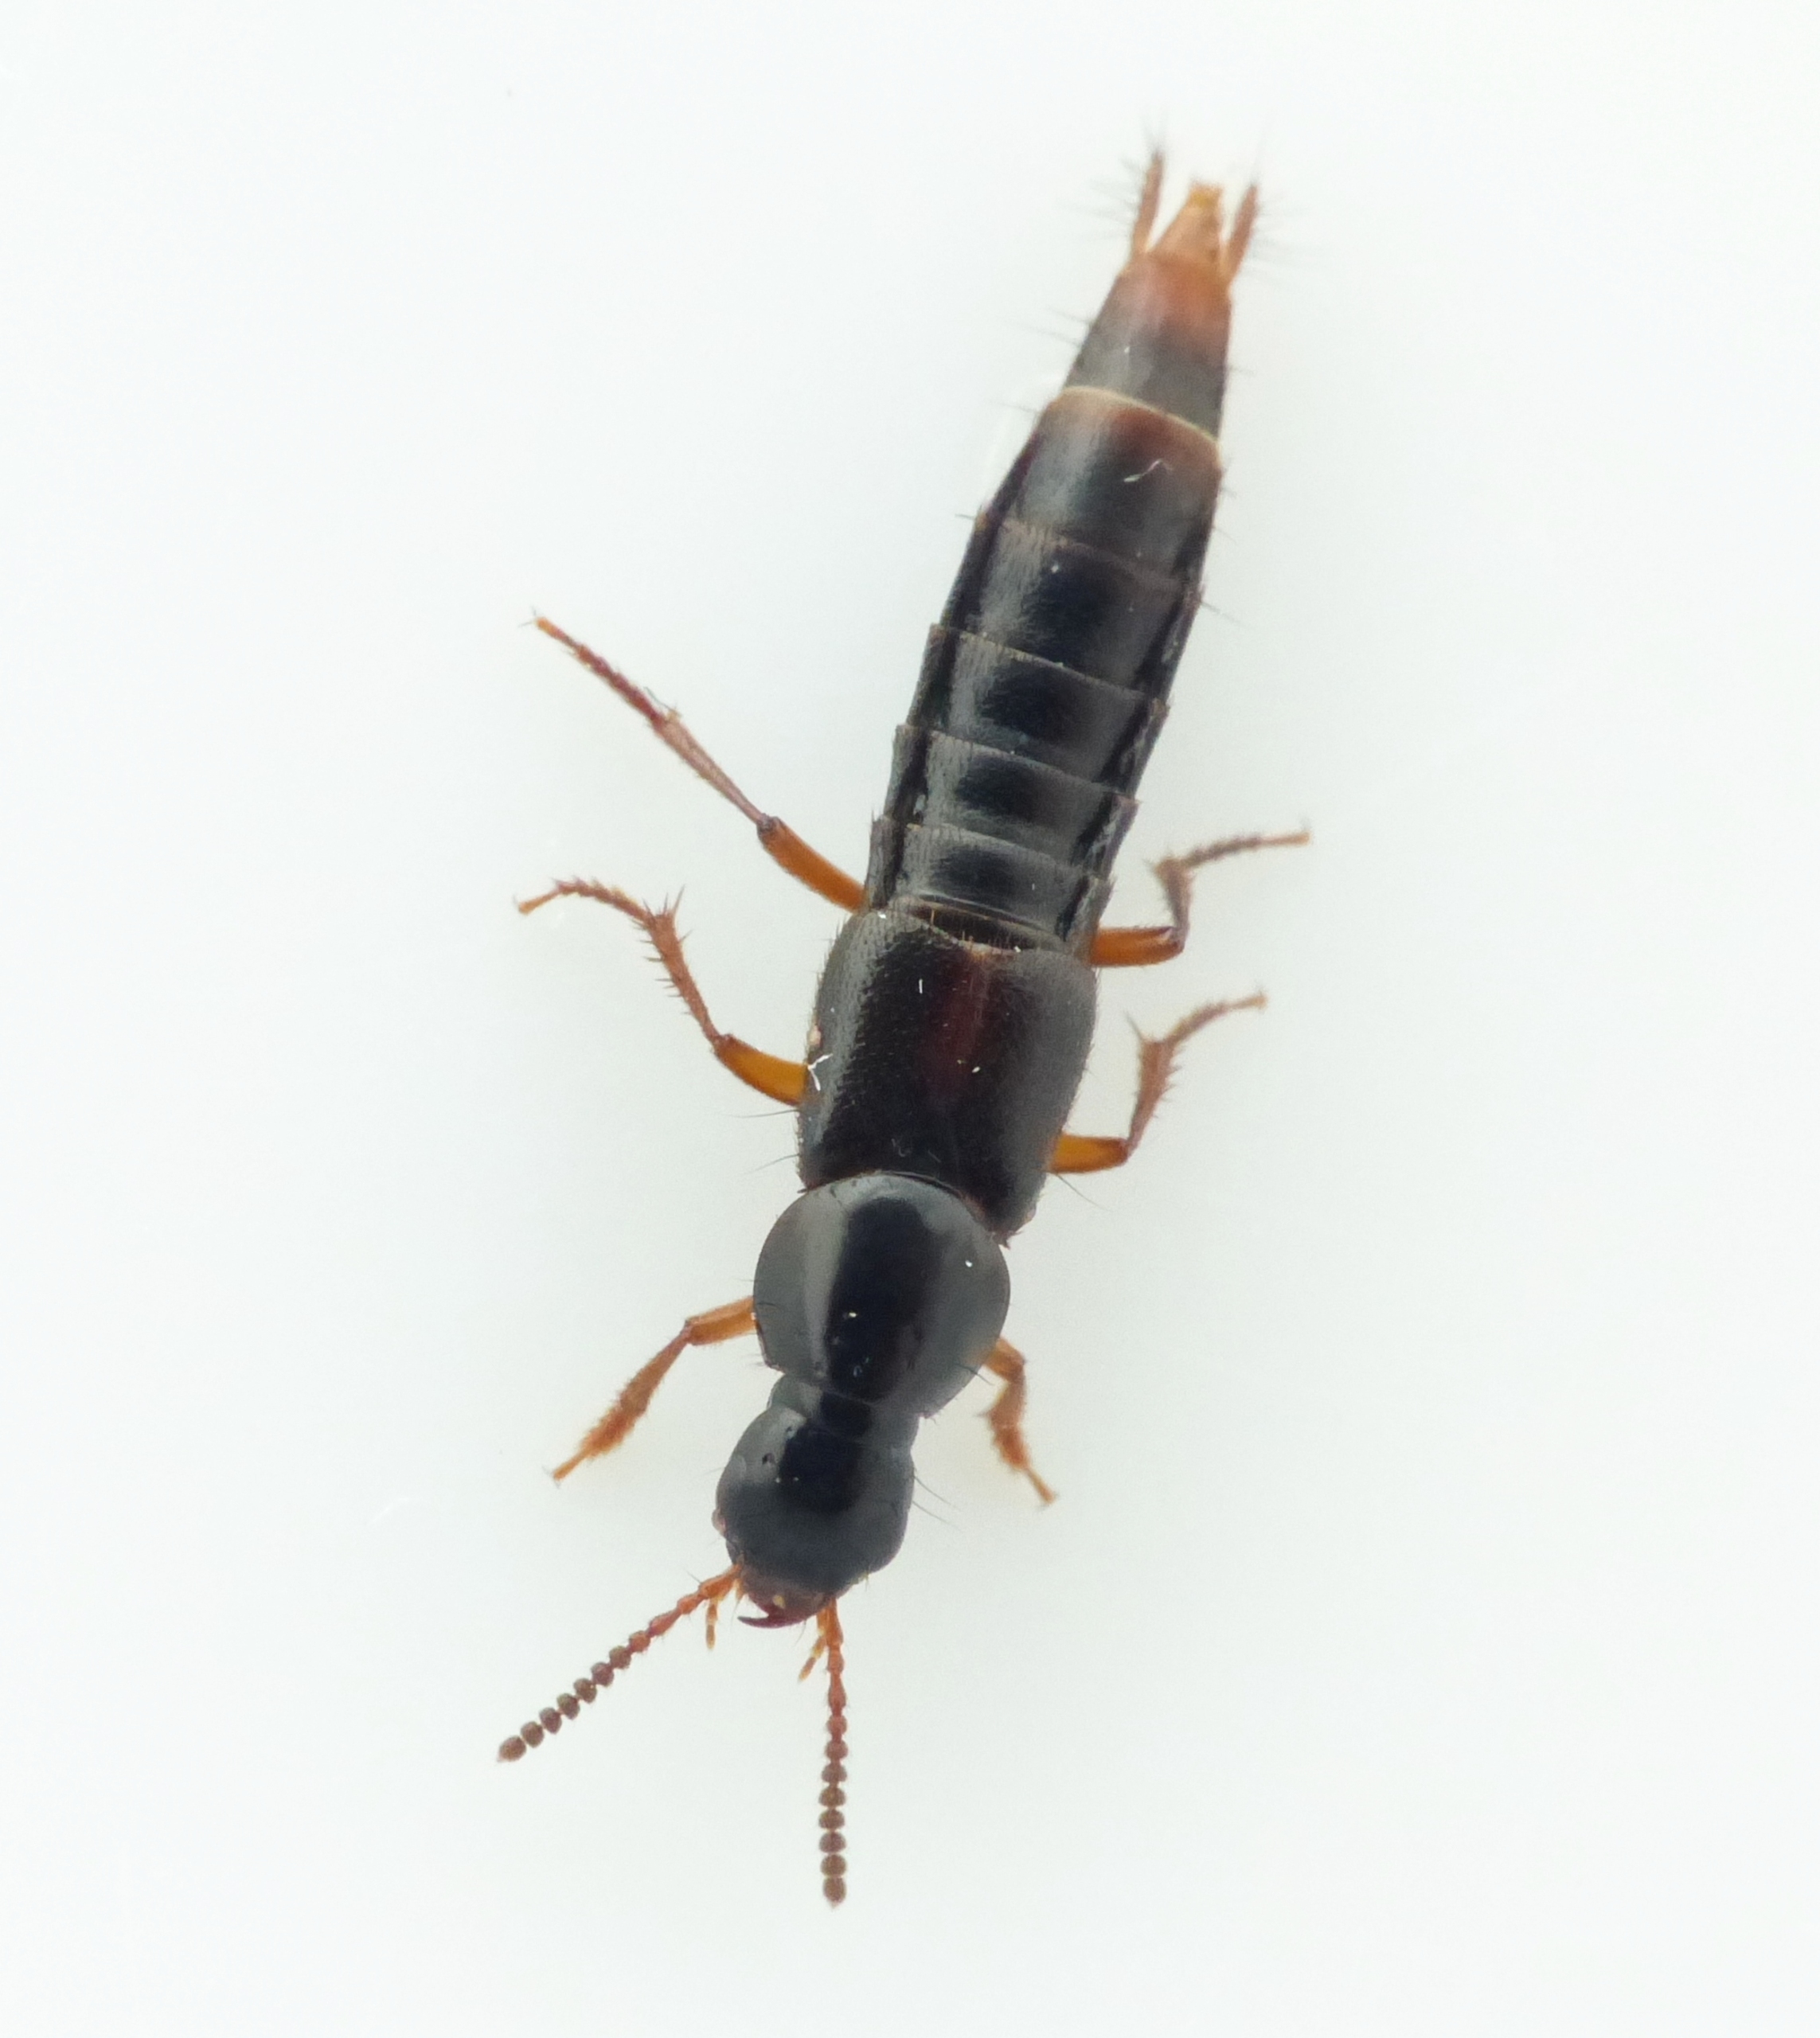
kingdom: Animalia
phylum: Arthropoda
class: Insecta
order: Coleoptera
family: Staphylinidae
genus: Quedius
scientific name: Quedius cruentus
